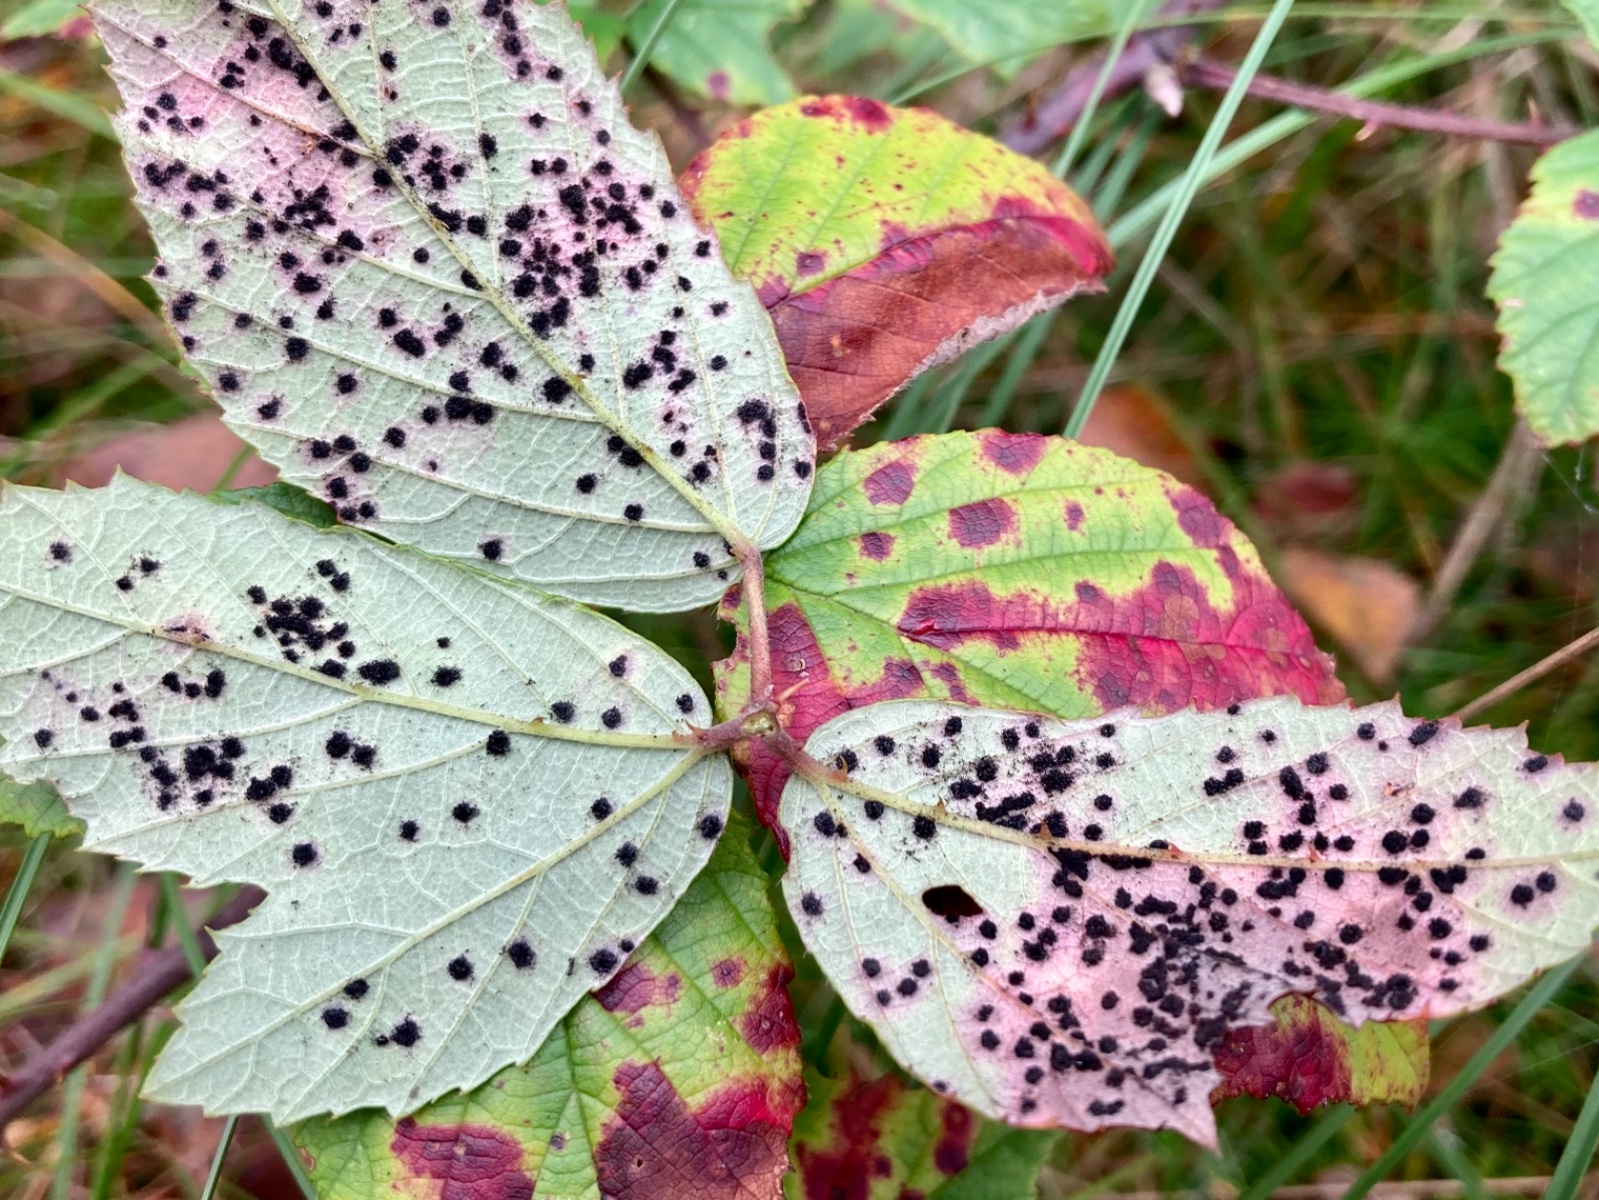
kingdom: Fungi
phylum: Basidiomycota
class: Pucciniomycetes
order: Pucciniales
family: Phragmidiaceae
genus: Phragmidium
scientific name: Phragmidium violaceum
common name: violet flercellerust
